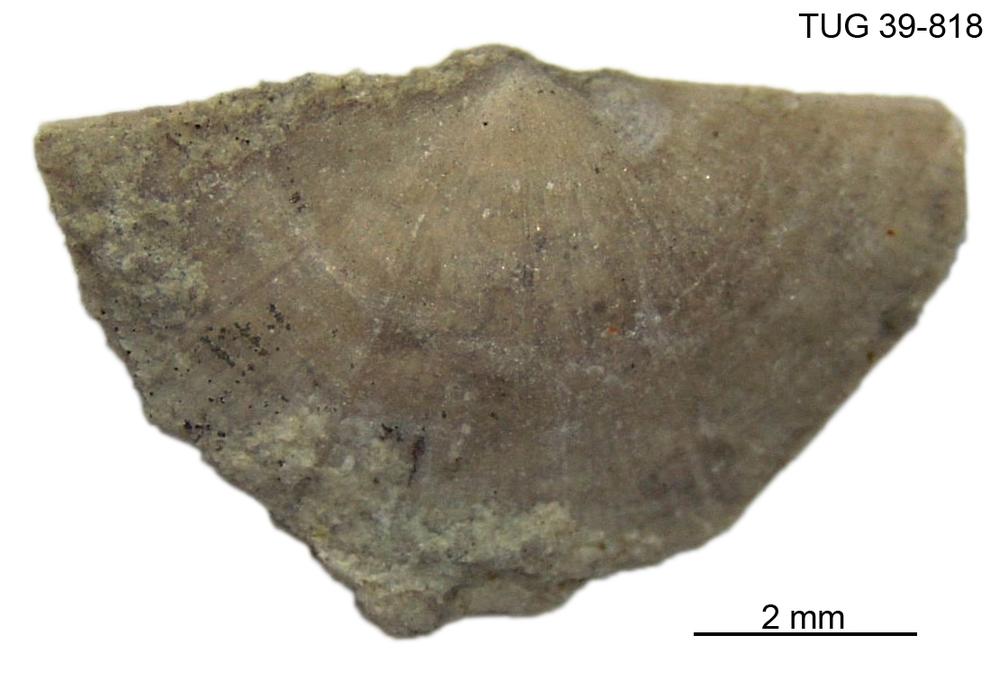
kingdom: Animalia
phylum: Brachiopoda
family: Sowerbyellidae
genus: Sowerbyella
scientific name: Sowerbyella
